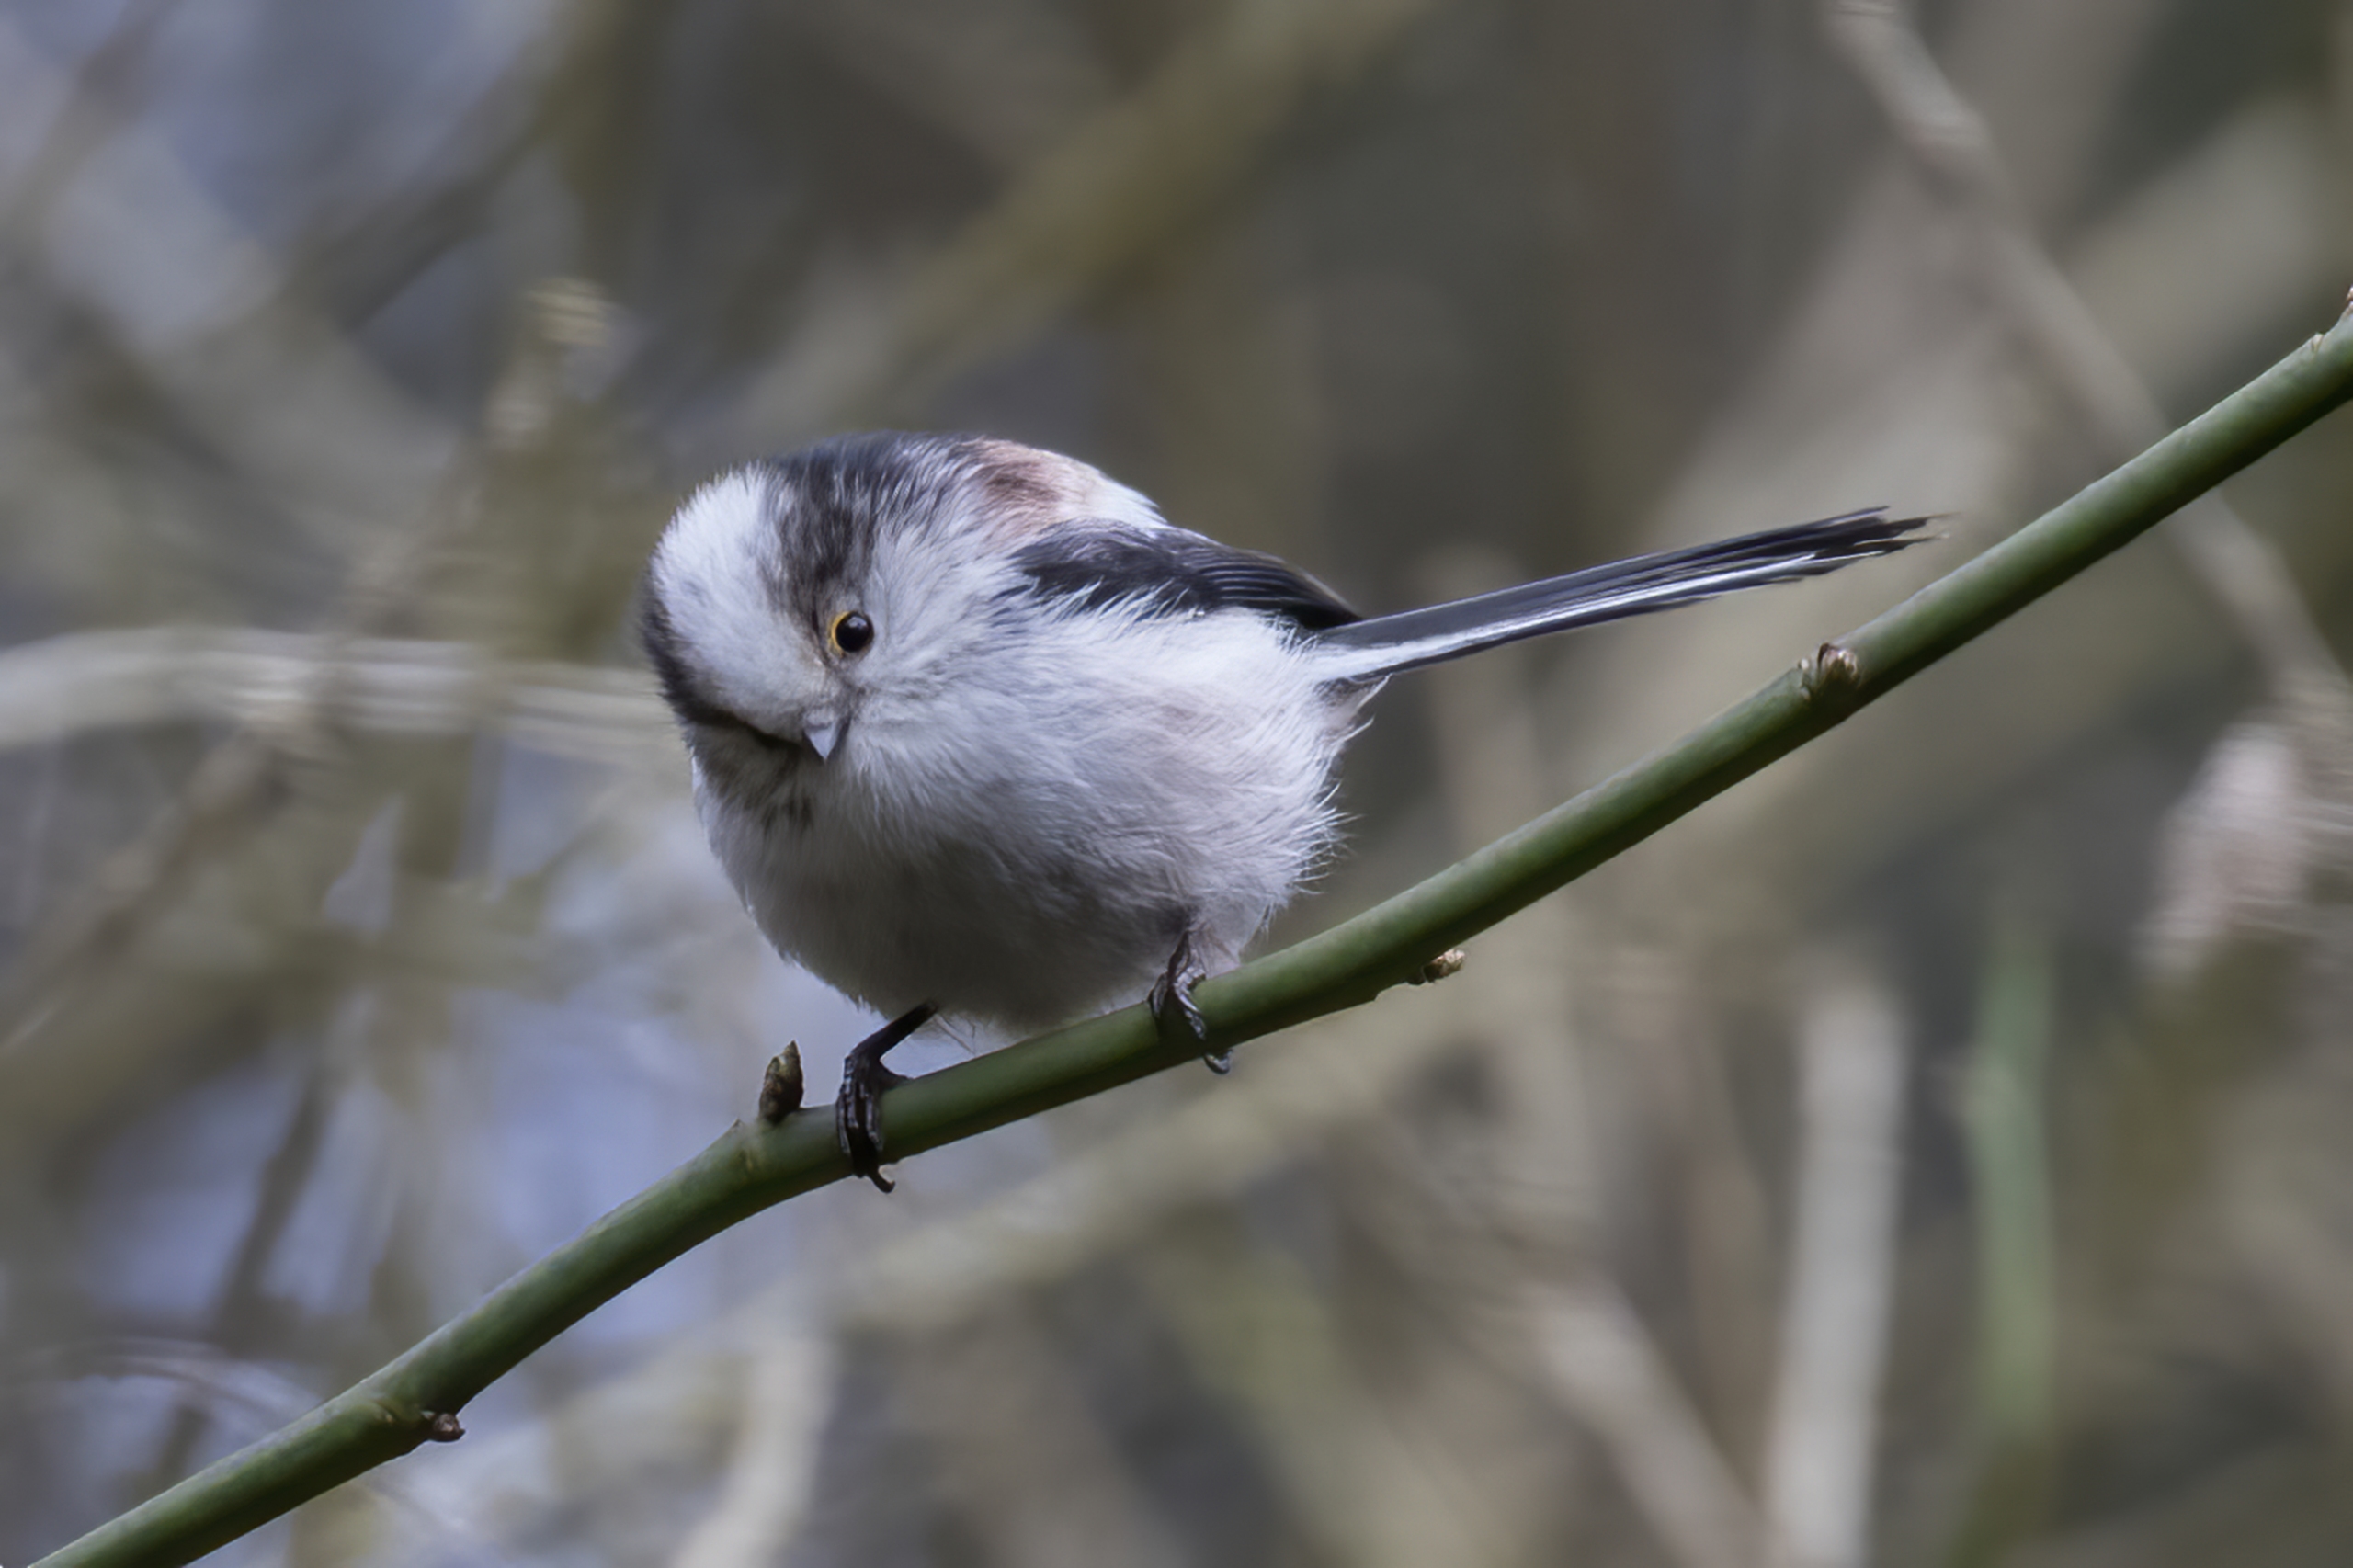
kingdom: Animalia
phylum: Chordata
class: Aves
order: Passeriformes
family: Aegithalidae
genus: Aegithalos
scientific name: Aegithalos caudatus
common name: Halemejse
